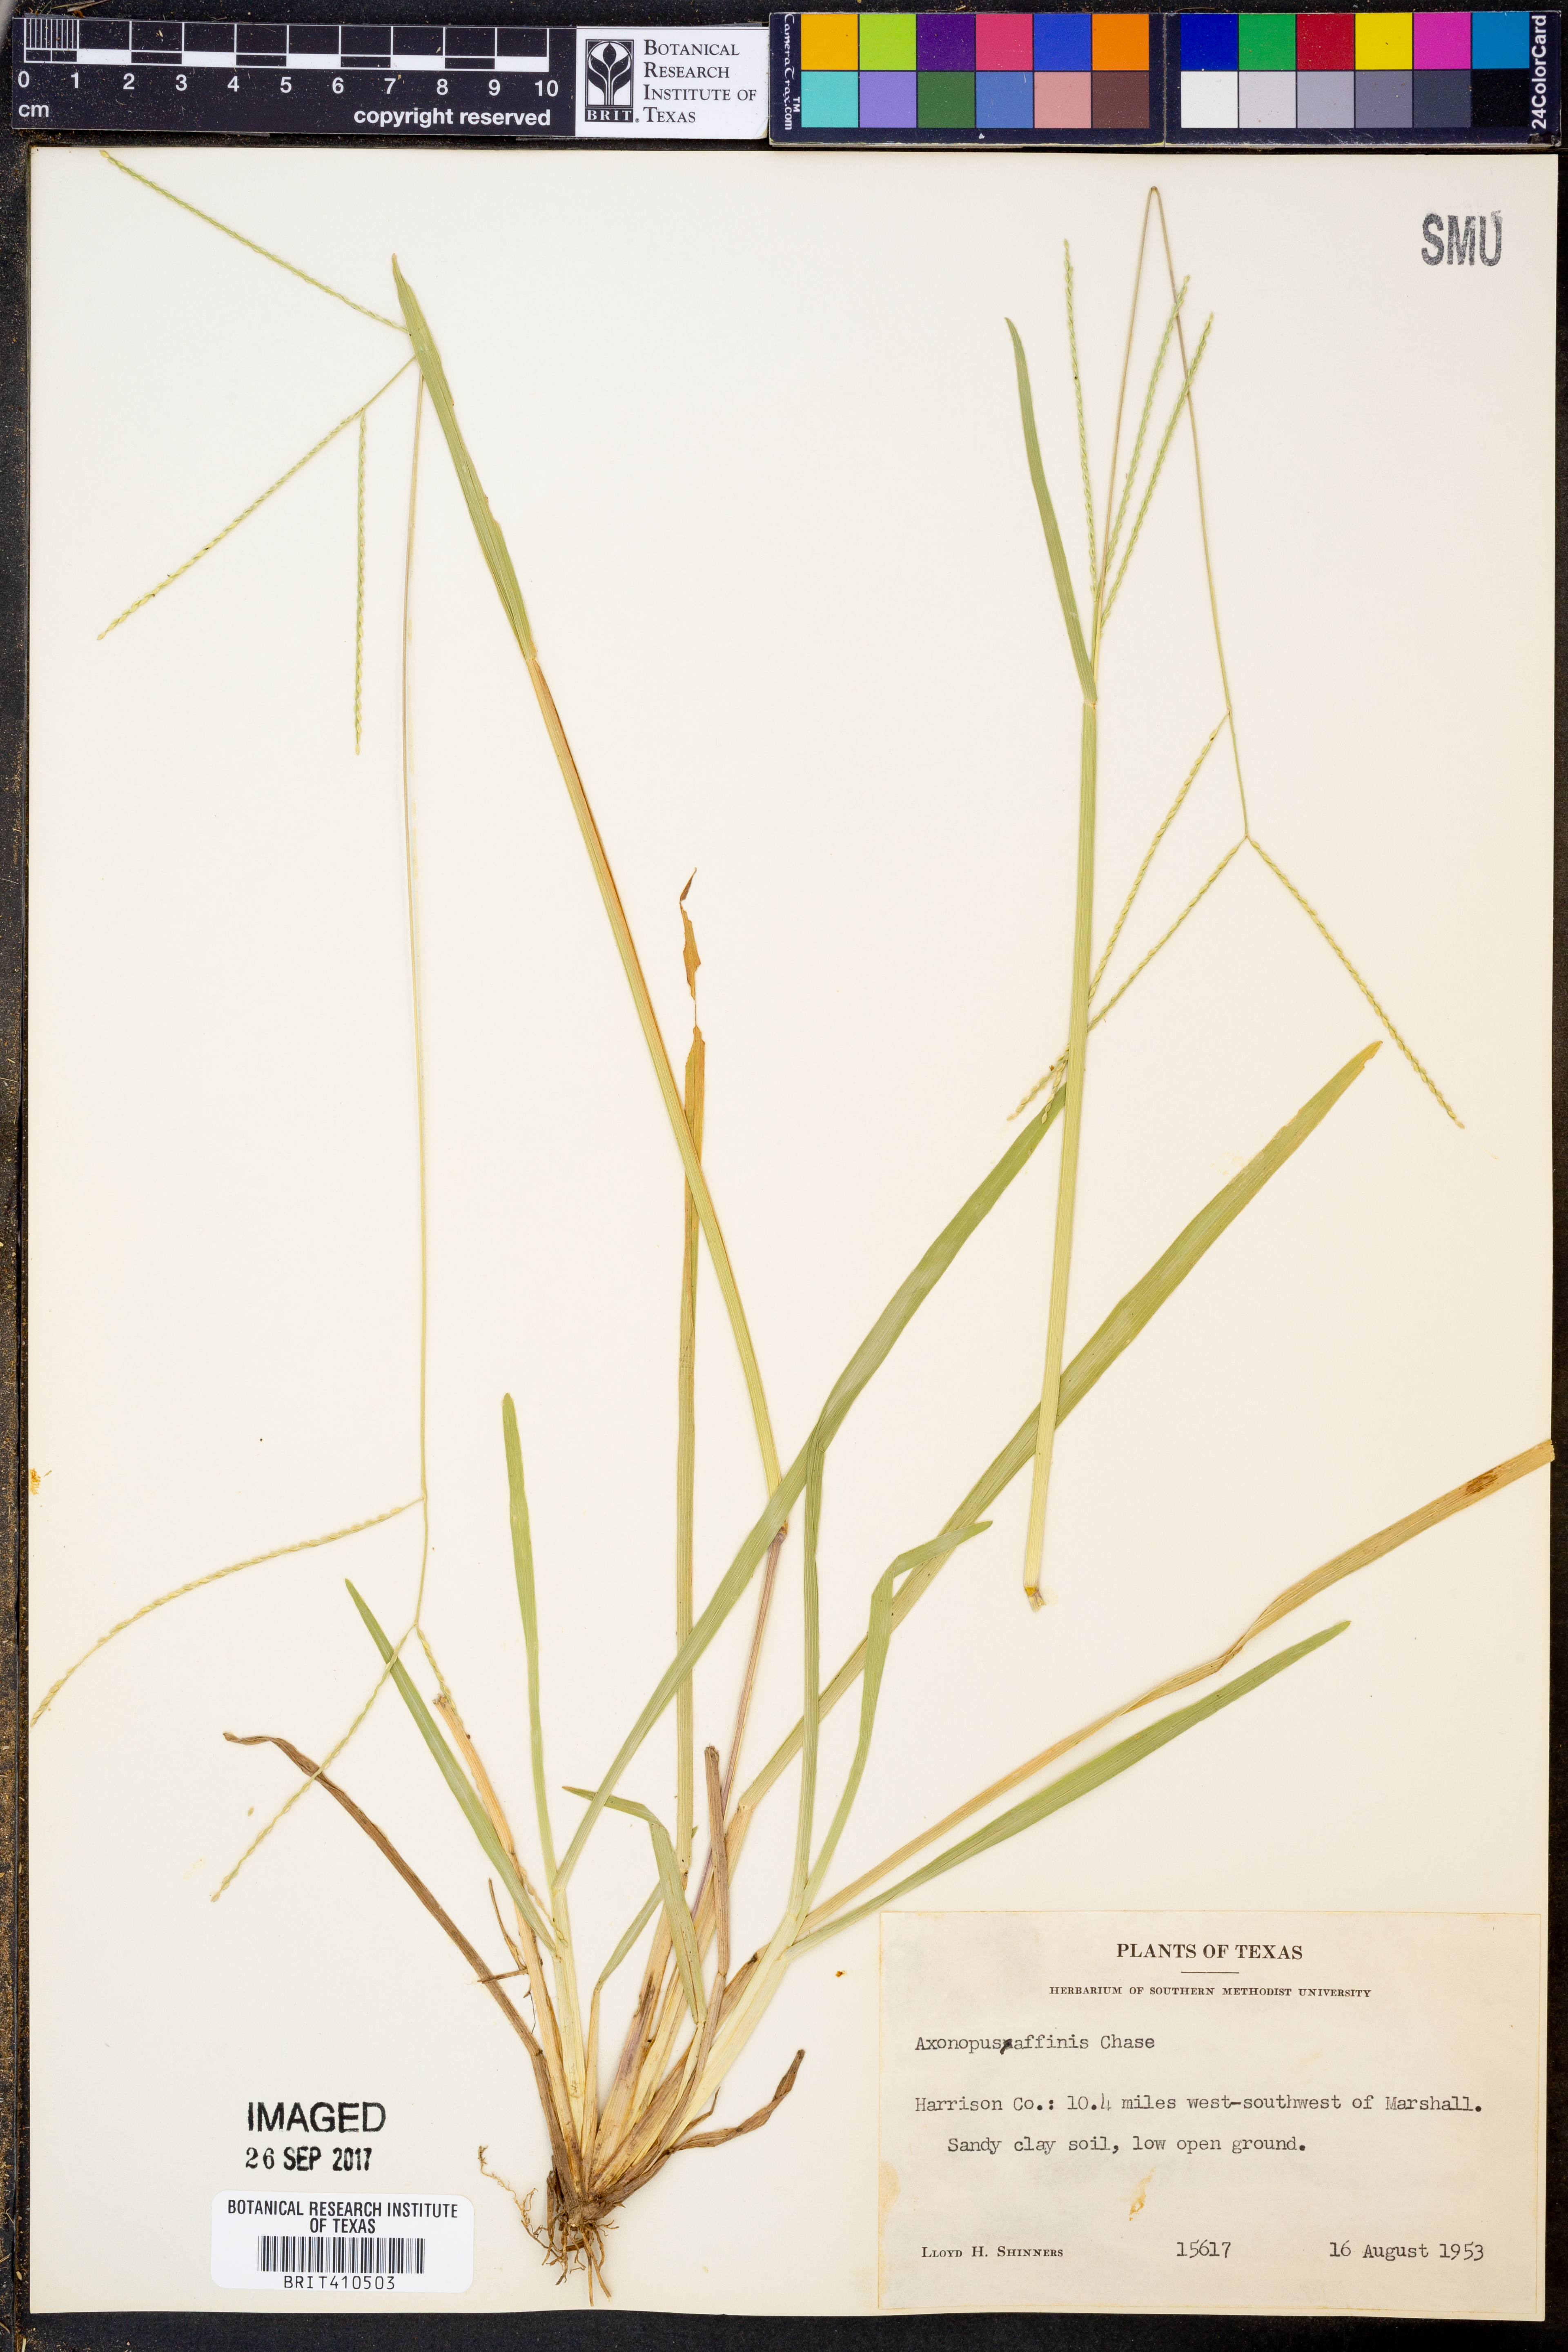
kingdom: Plantae
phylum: Tracheophyta
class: Liliopsida
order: Poales
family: Poaceae
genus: Axonopus
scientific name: Axonopus fissifolius
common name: Common carpetgrass
